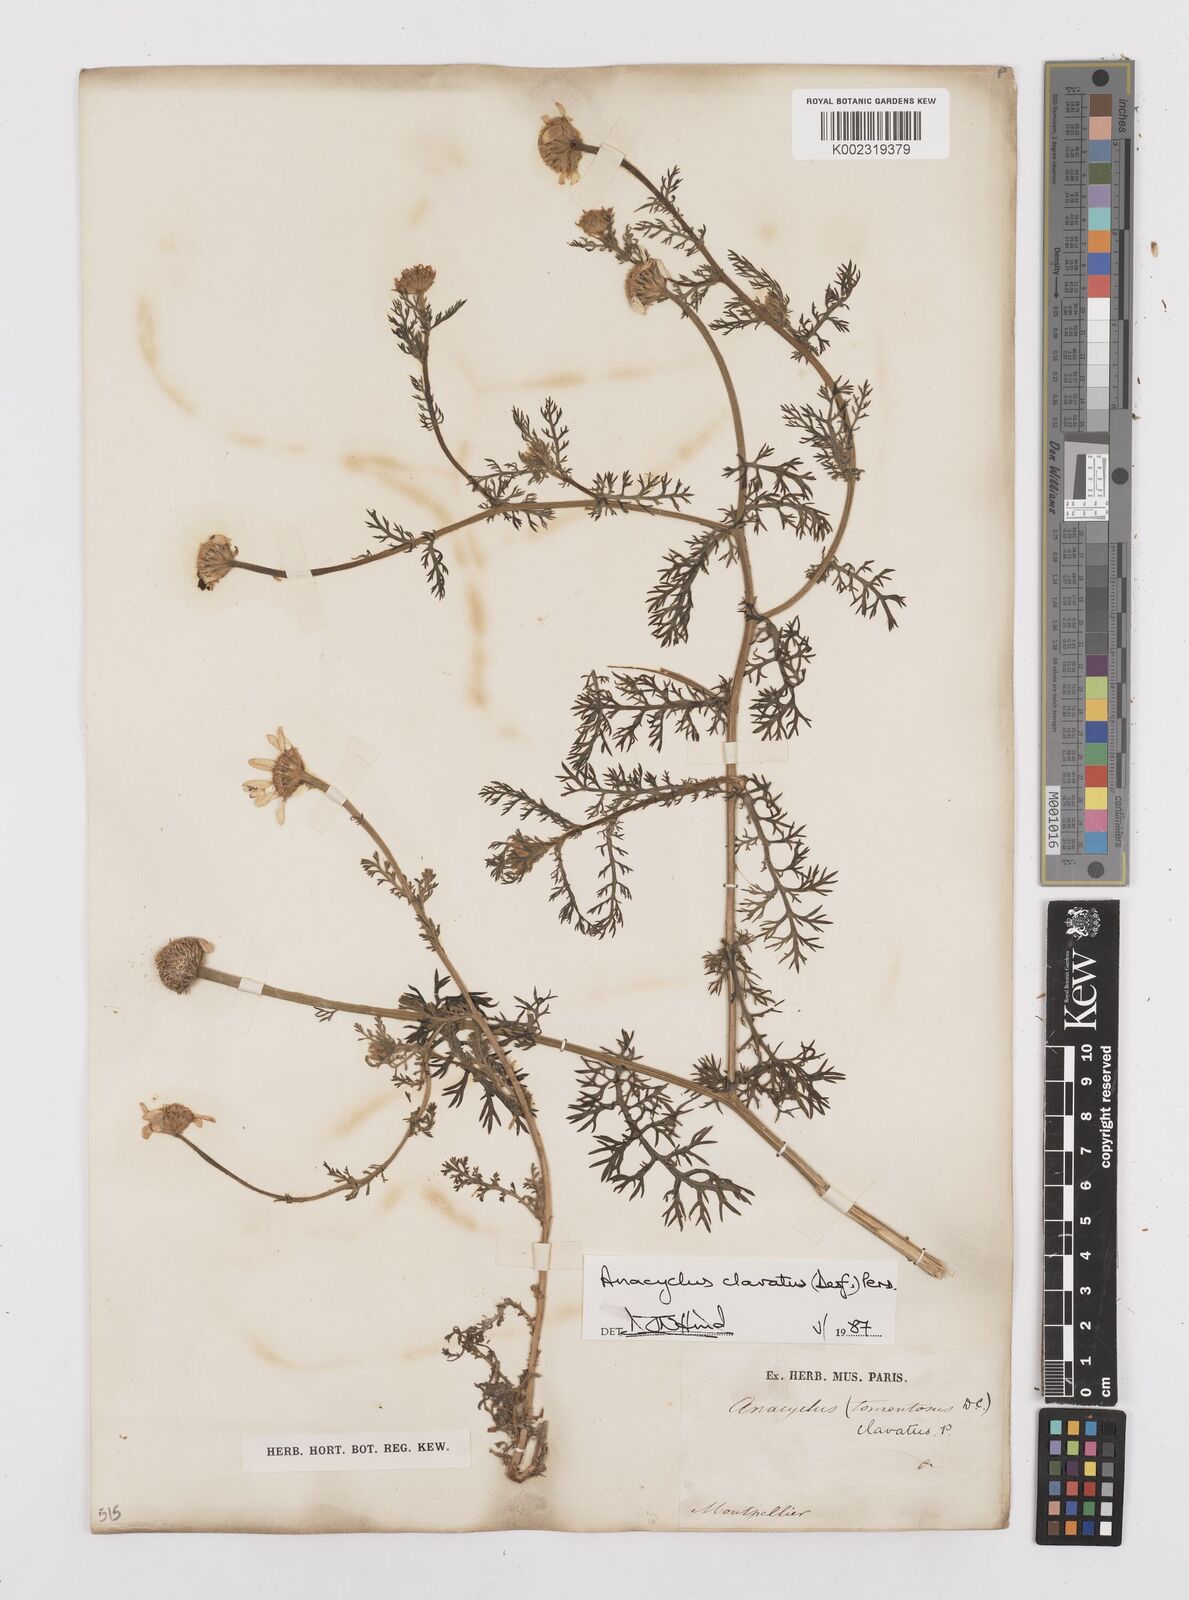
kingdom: Plantae
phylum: Tracheophyta
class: Magnoliopsida
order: Asterales
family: Asteraceae
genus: Anacyclus
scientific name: Anacyclus clavatus
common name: Whitebuttons
